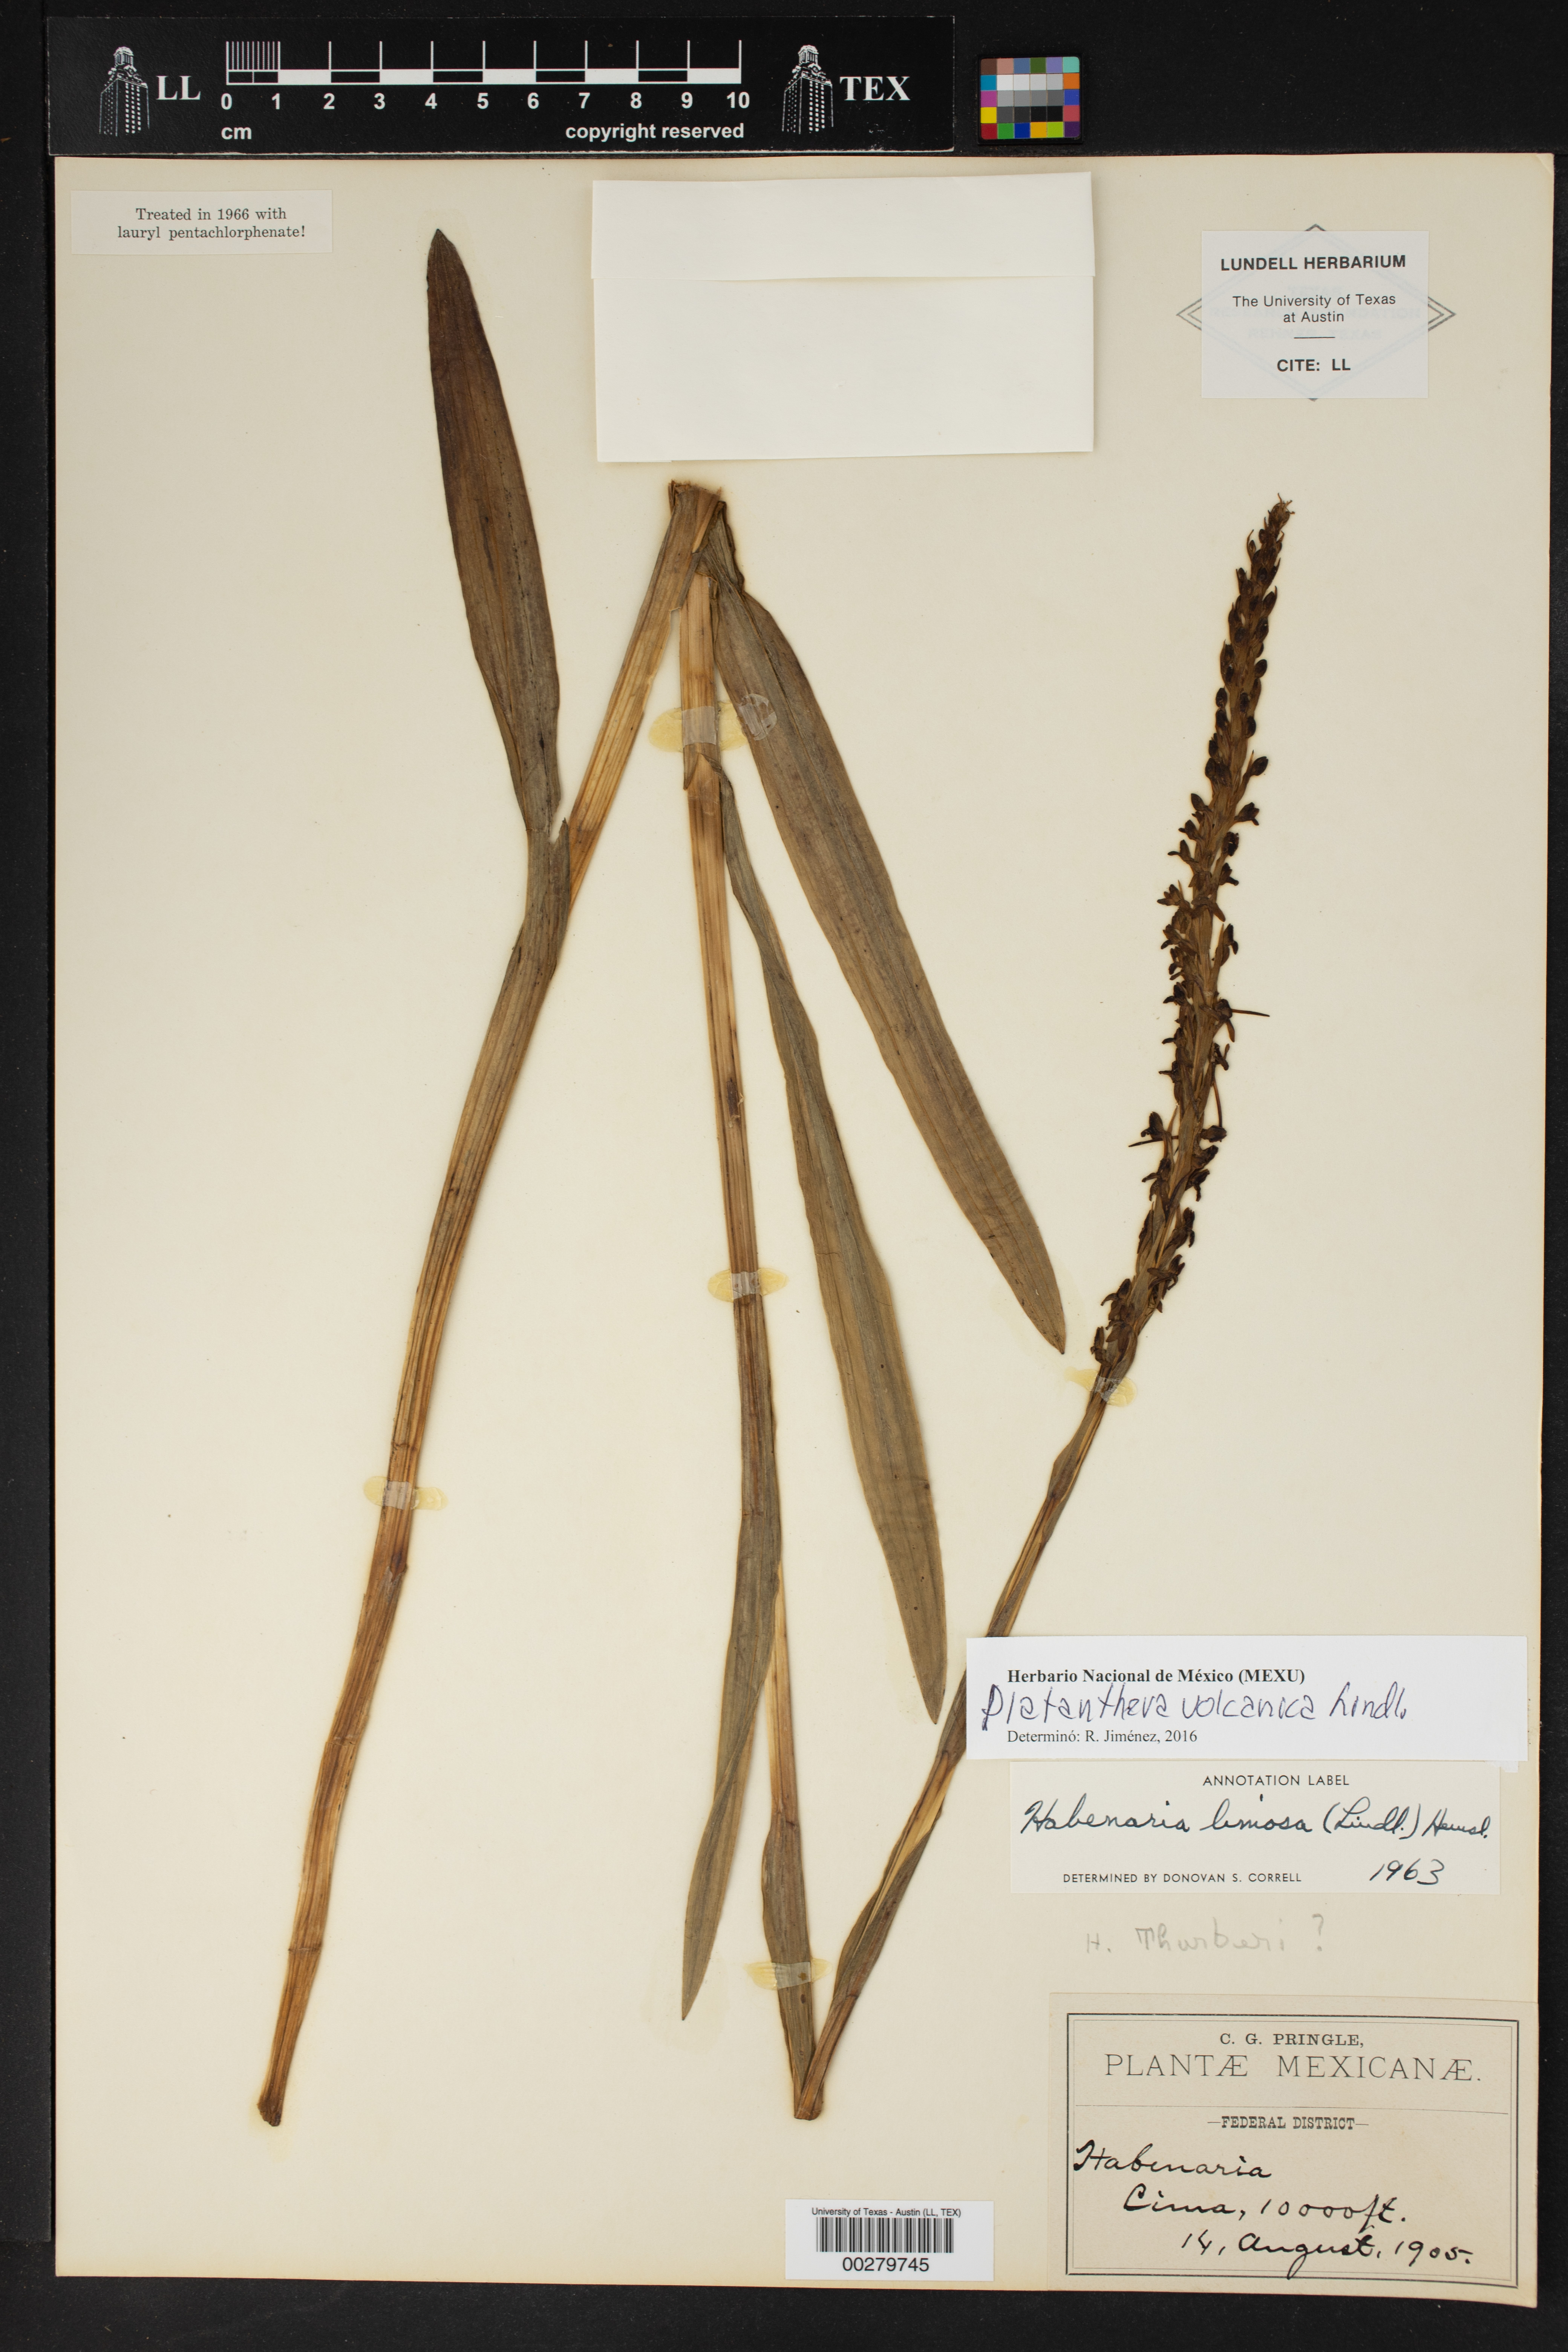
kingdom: Plantae
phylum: Tracheophyta
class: Liliopsida
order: Asparagales
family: Orchidaceae
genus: Coenoemersa
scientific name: Coenoemersa limosa
